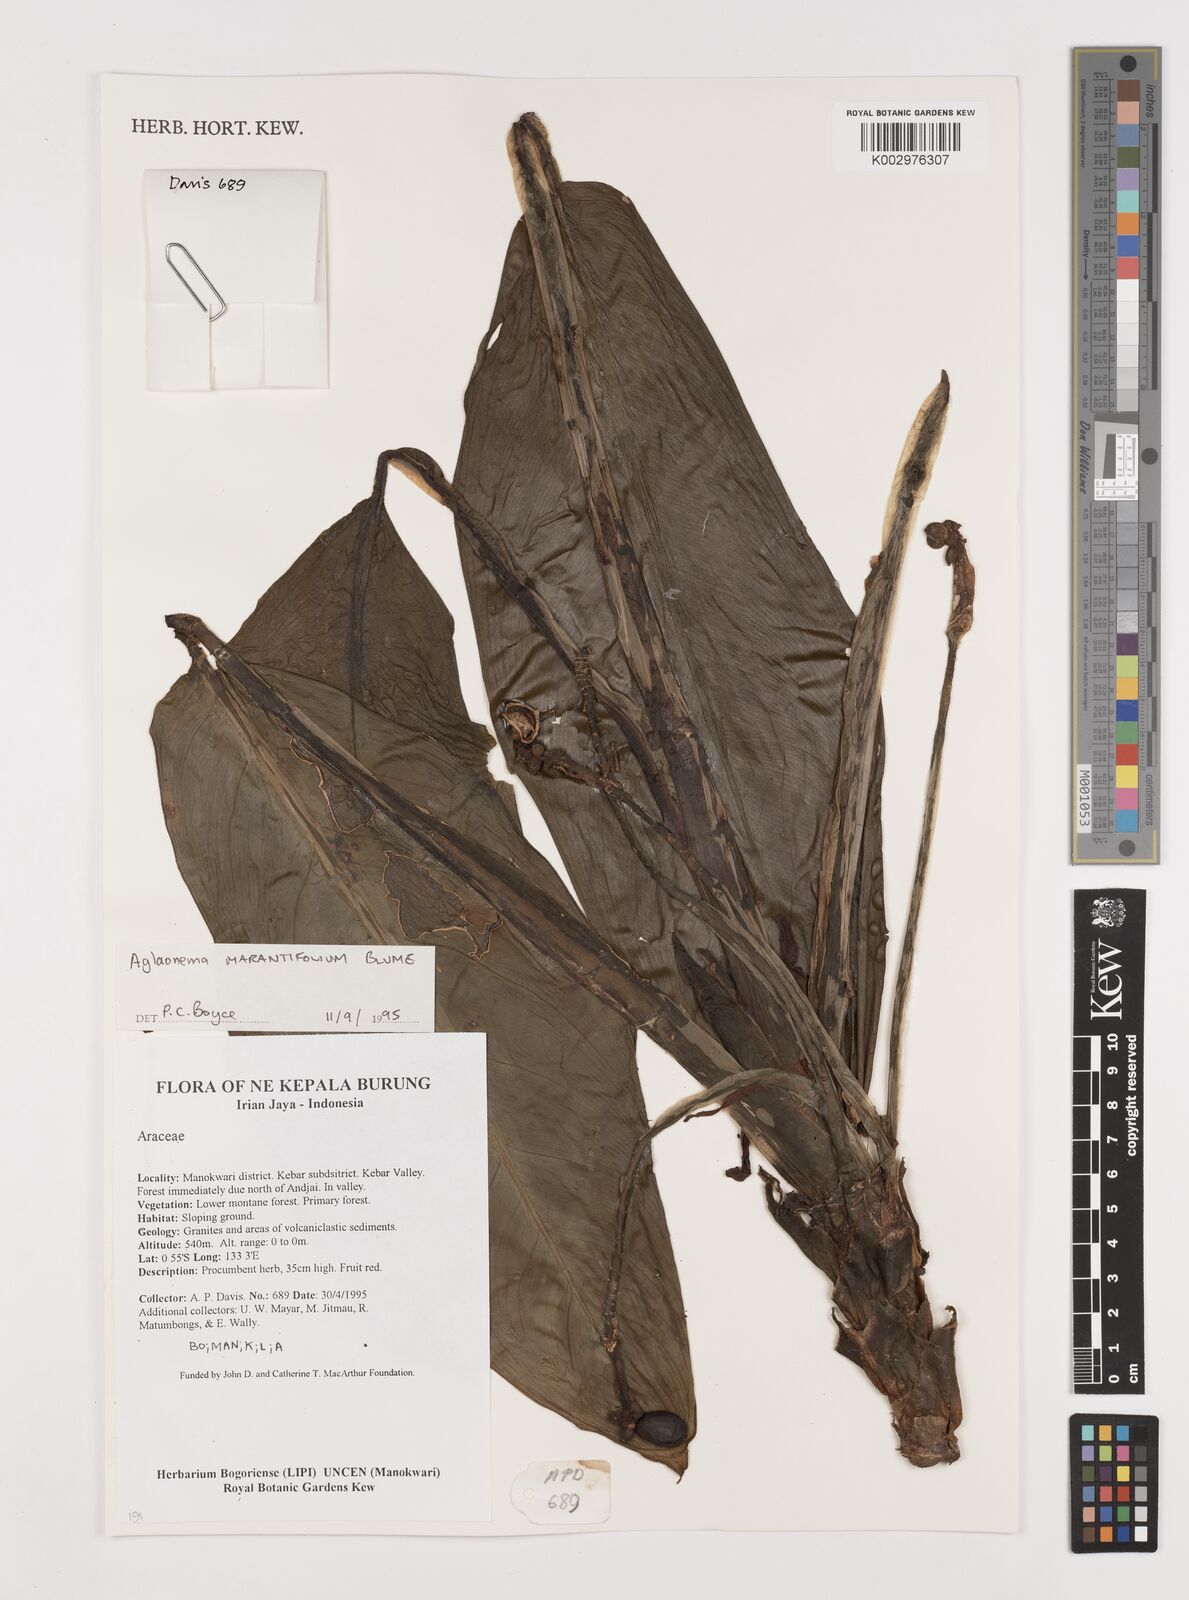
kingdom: Plantae
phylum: Tracheophyta
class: Liliopsida
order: Alismatales
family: Araceae
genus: Aglaonema
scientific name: Aglaonema marantifolium
